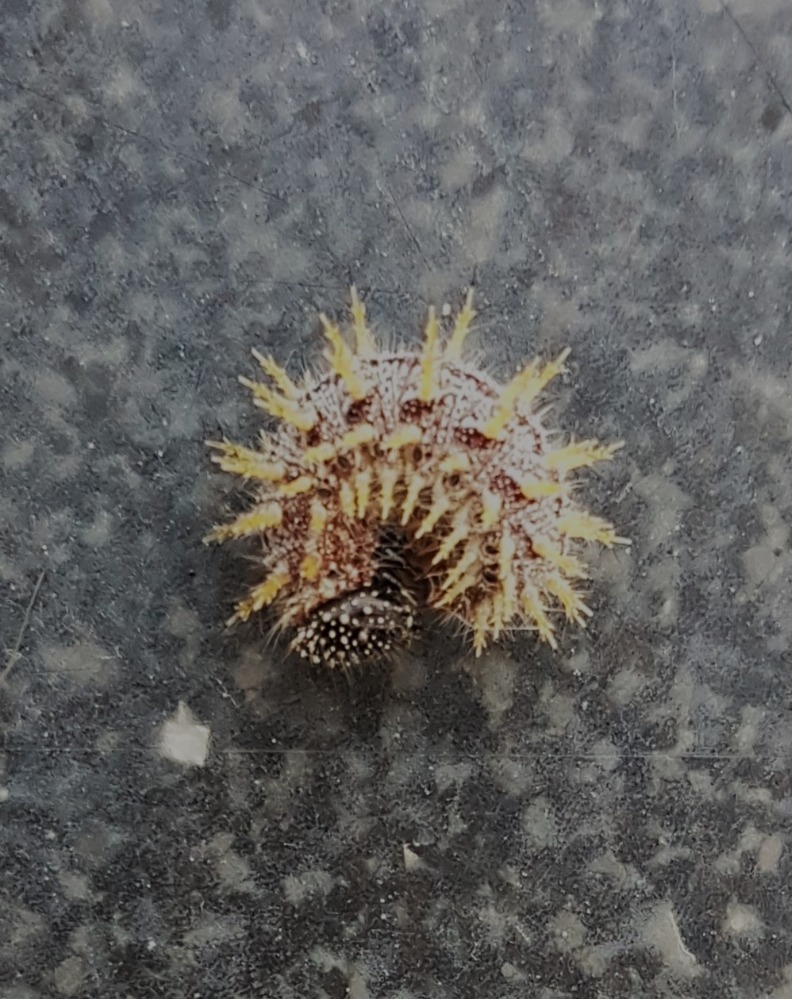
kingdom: Animalia
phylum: Arthropoda
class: Insecta
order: Lepidoptera
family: Nymphalidae
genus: Vanessa
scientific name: Vanessa atalanta
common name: Admiral
